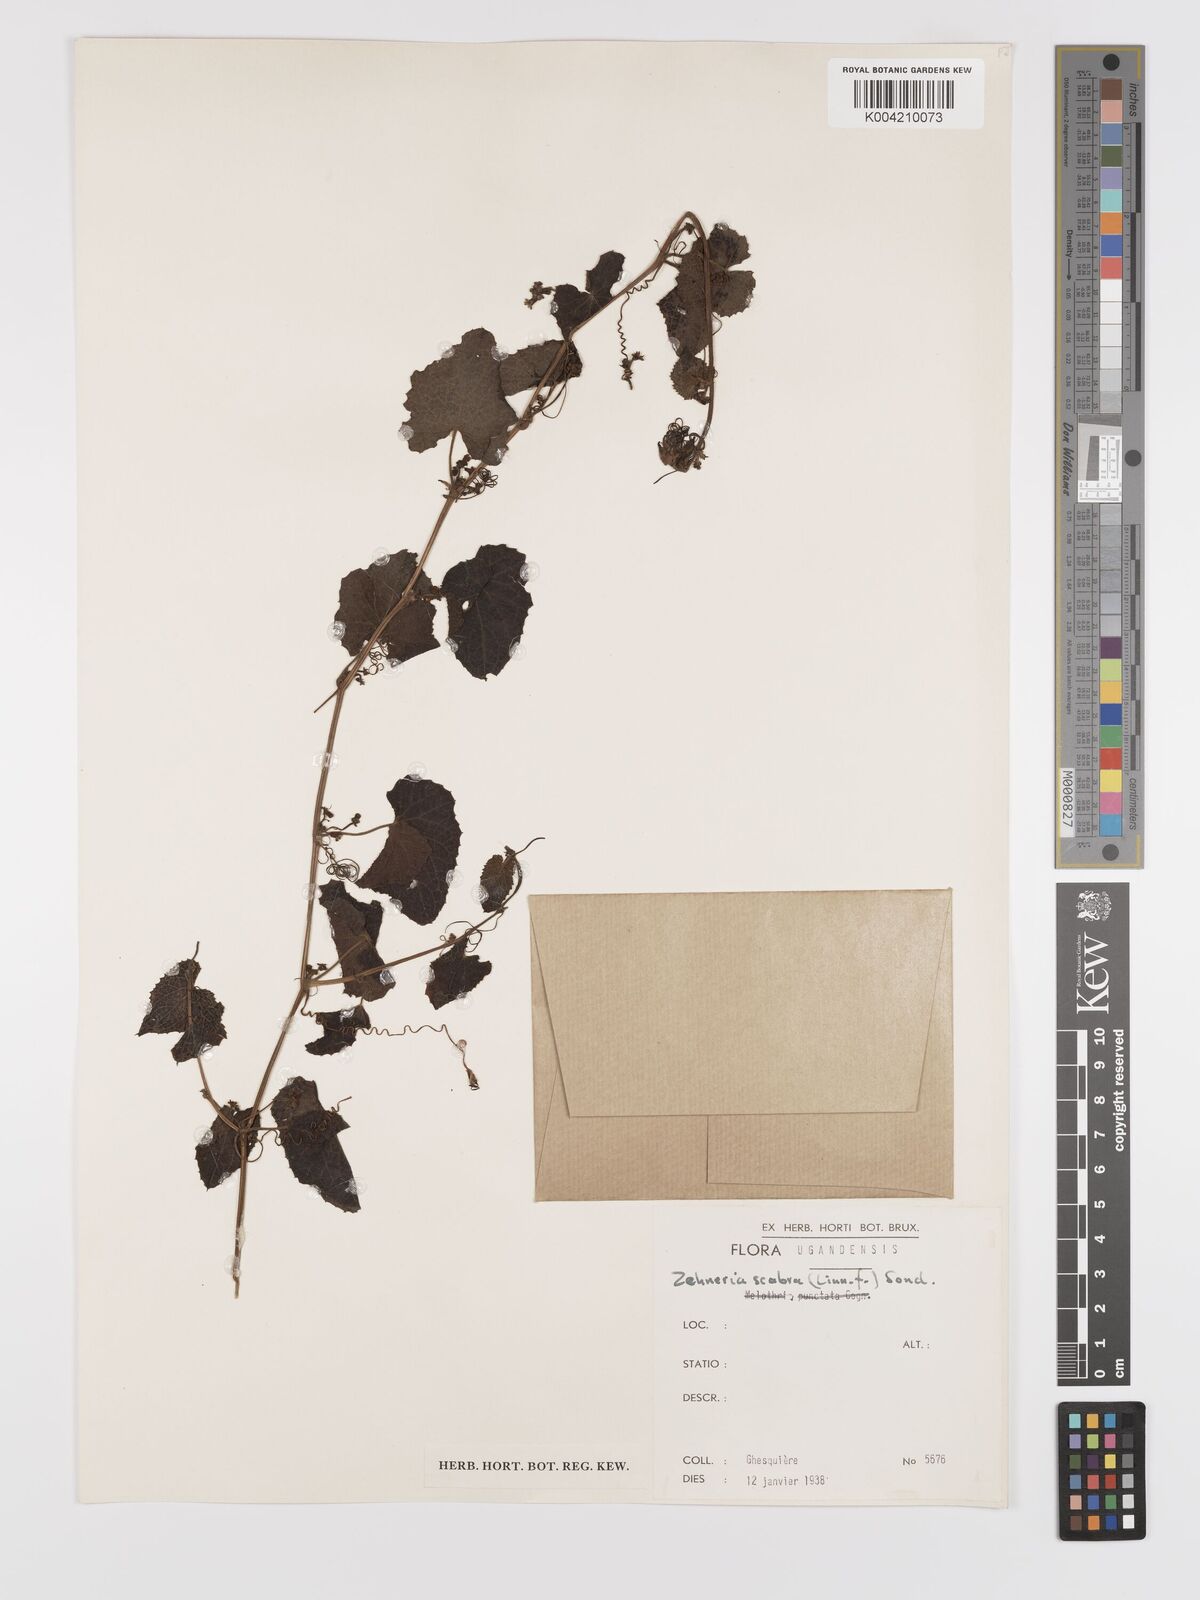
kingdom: Plantae
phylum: Tracheophyta
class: Magnoliopsida
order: Cucurbitales
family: Cucurbitaceae
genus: Zehneria
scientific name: Zehneria scabra
